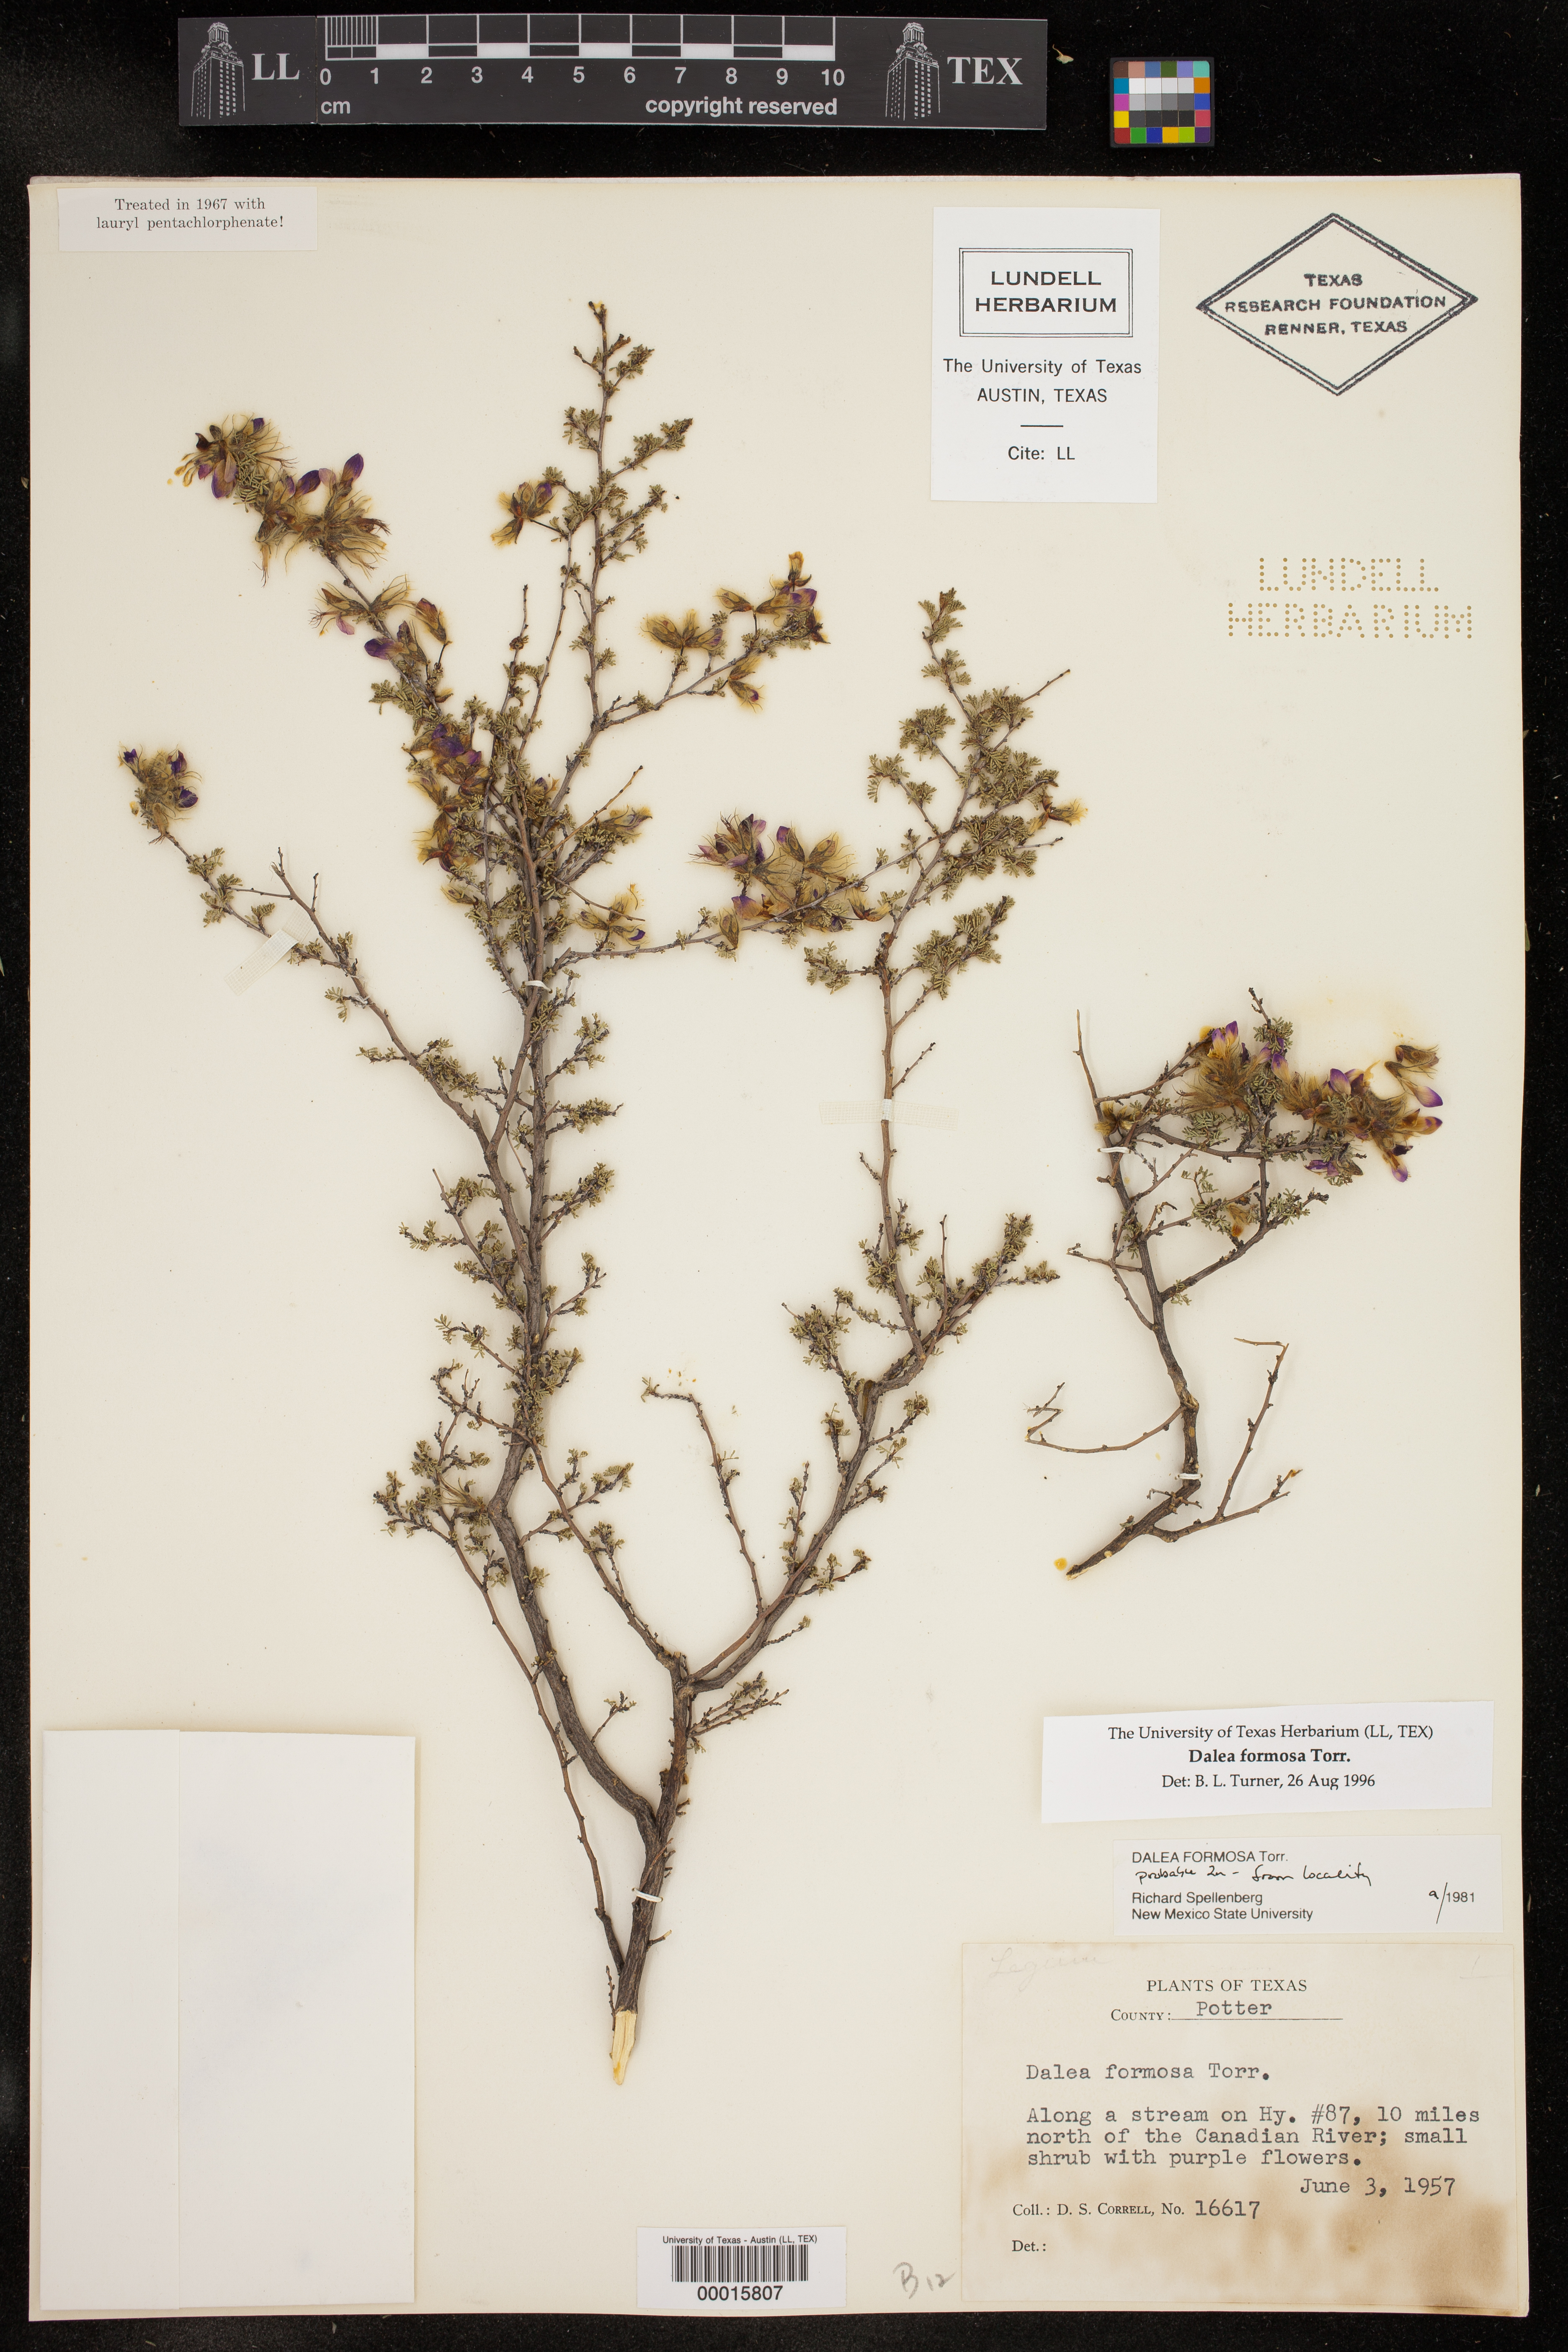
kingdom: Plantae
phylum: Tracheophyta
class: Magnoliopsida
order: Fabales
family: Fabaceae
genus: Dalea
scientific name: Dalea formosa
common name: Feather-plume dalea
